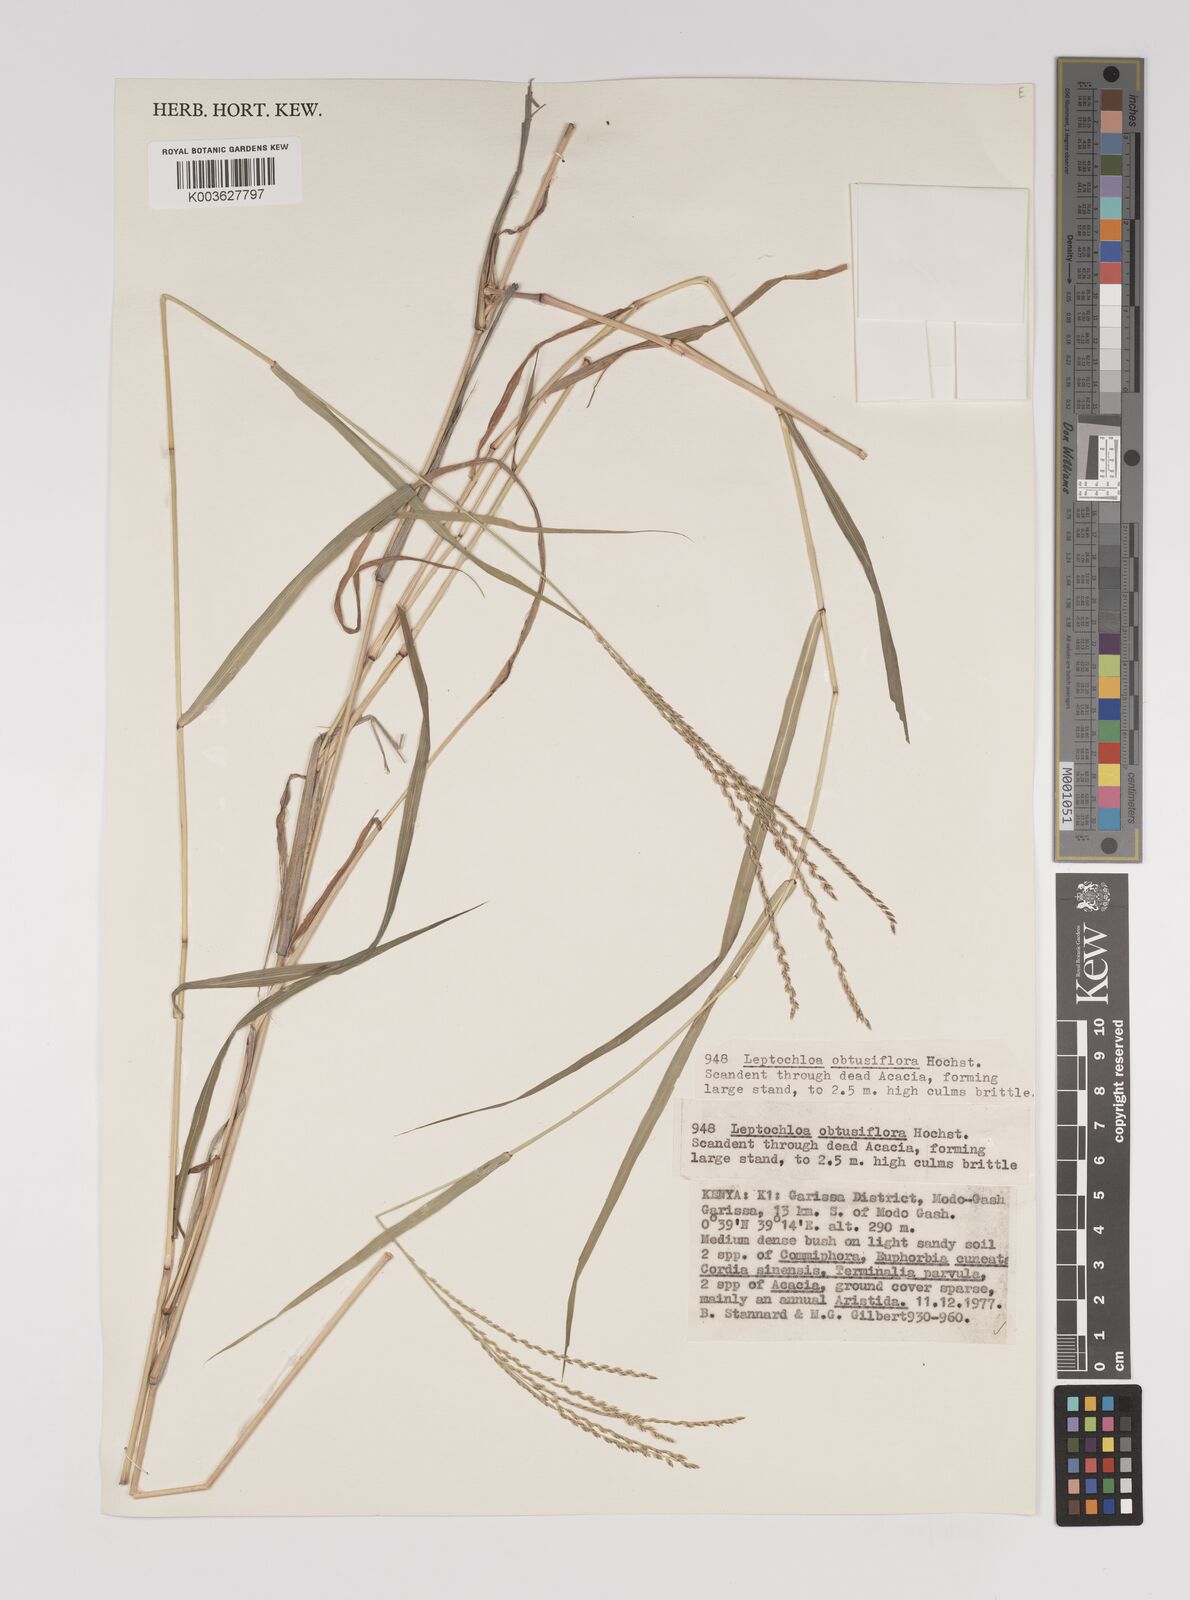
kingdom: Plantae
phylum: Tracheophyta
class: Liliopsida
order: Poales
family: Poaceae
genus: Disakisperma
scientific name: Disakisperma obtusiflorum
